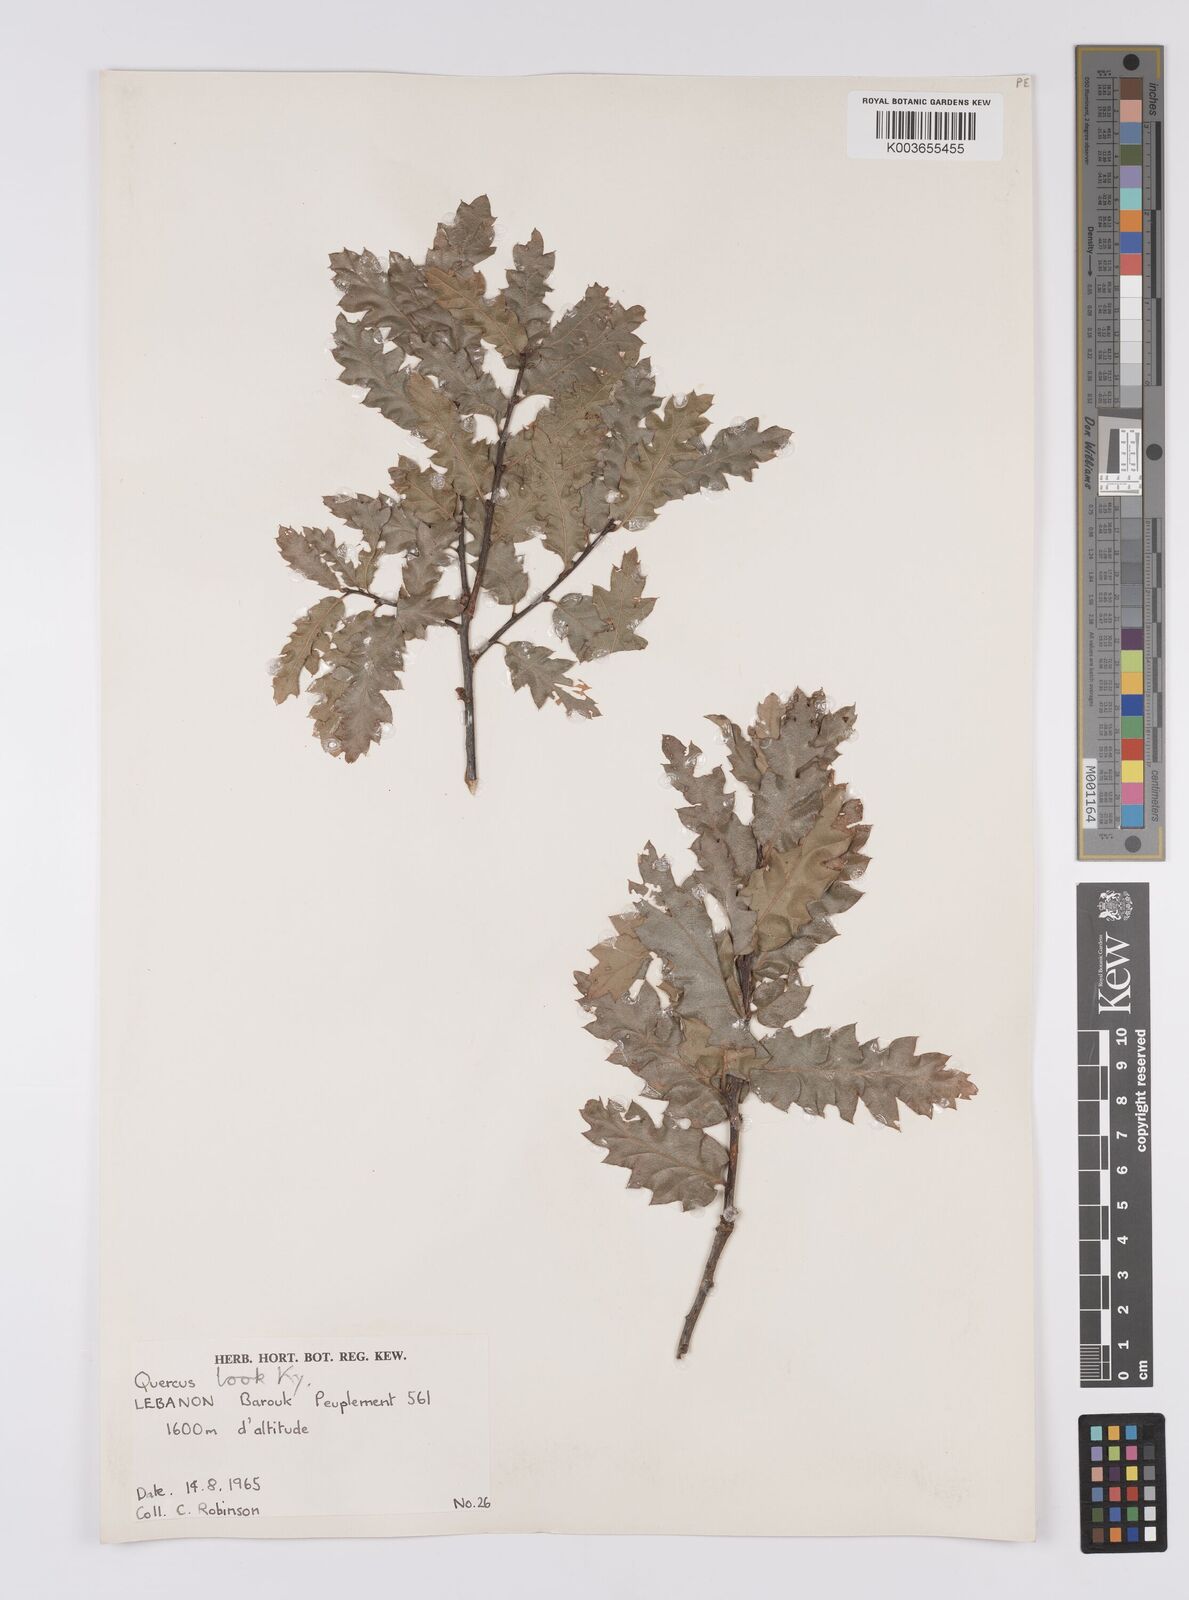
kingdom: Plantae
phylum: Tracheophyta
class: Magnoliopsida
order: Fagales
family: Fagaceae
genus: Quercus
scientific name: Quercus look
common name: Look oak
